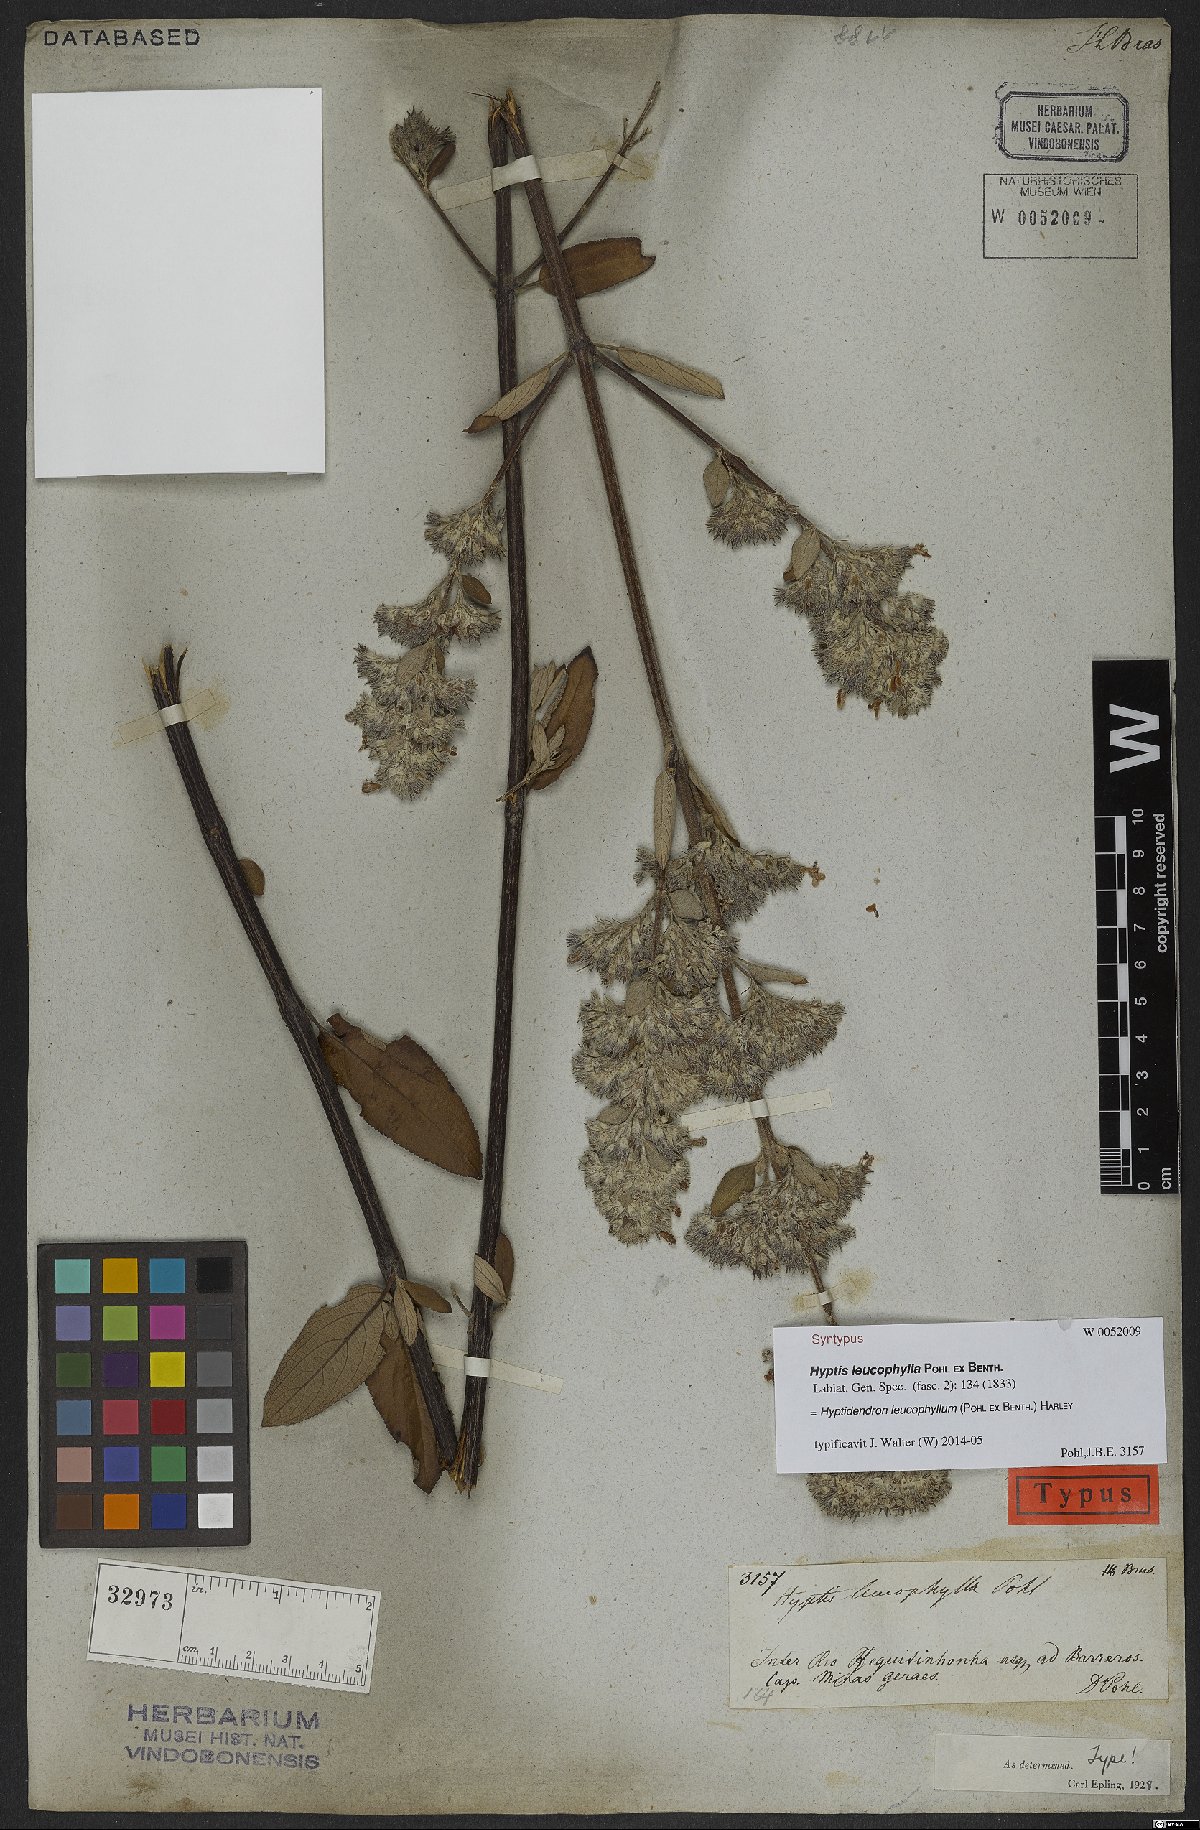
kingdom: Plantae
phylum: Tracheophyta
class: Magnoliopsida
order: Lamiales
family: Lamiaceae
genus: Hyptidendron
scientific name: Hyptidendron leucophyllum
